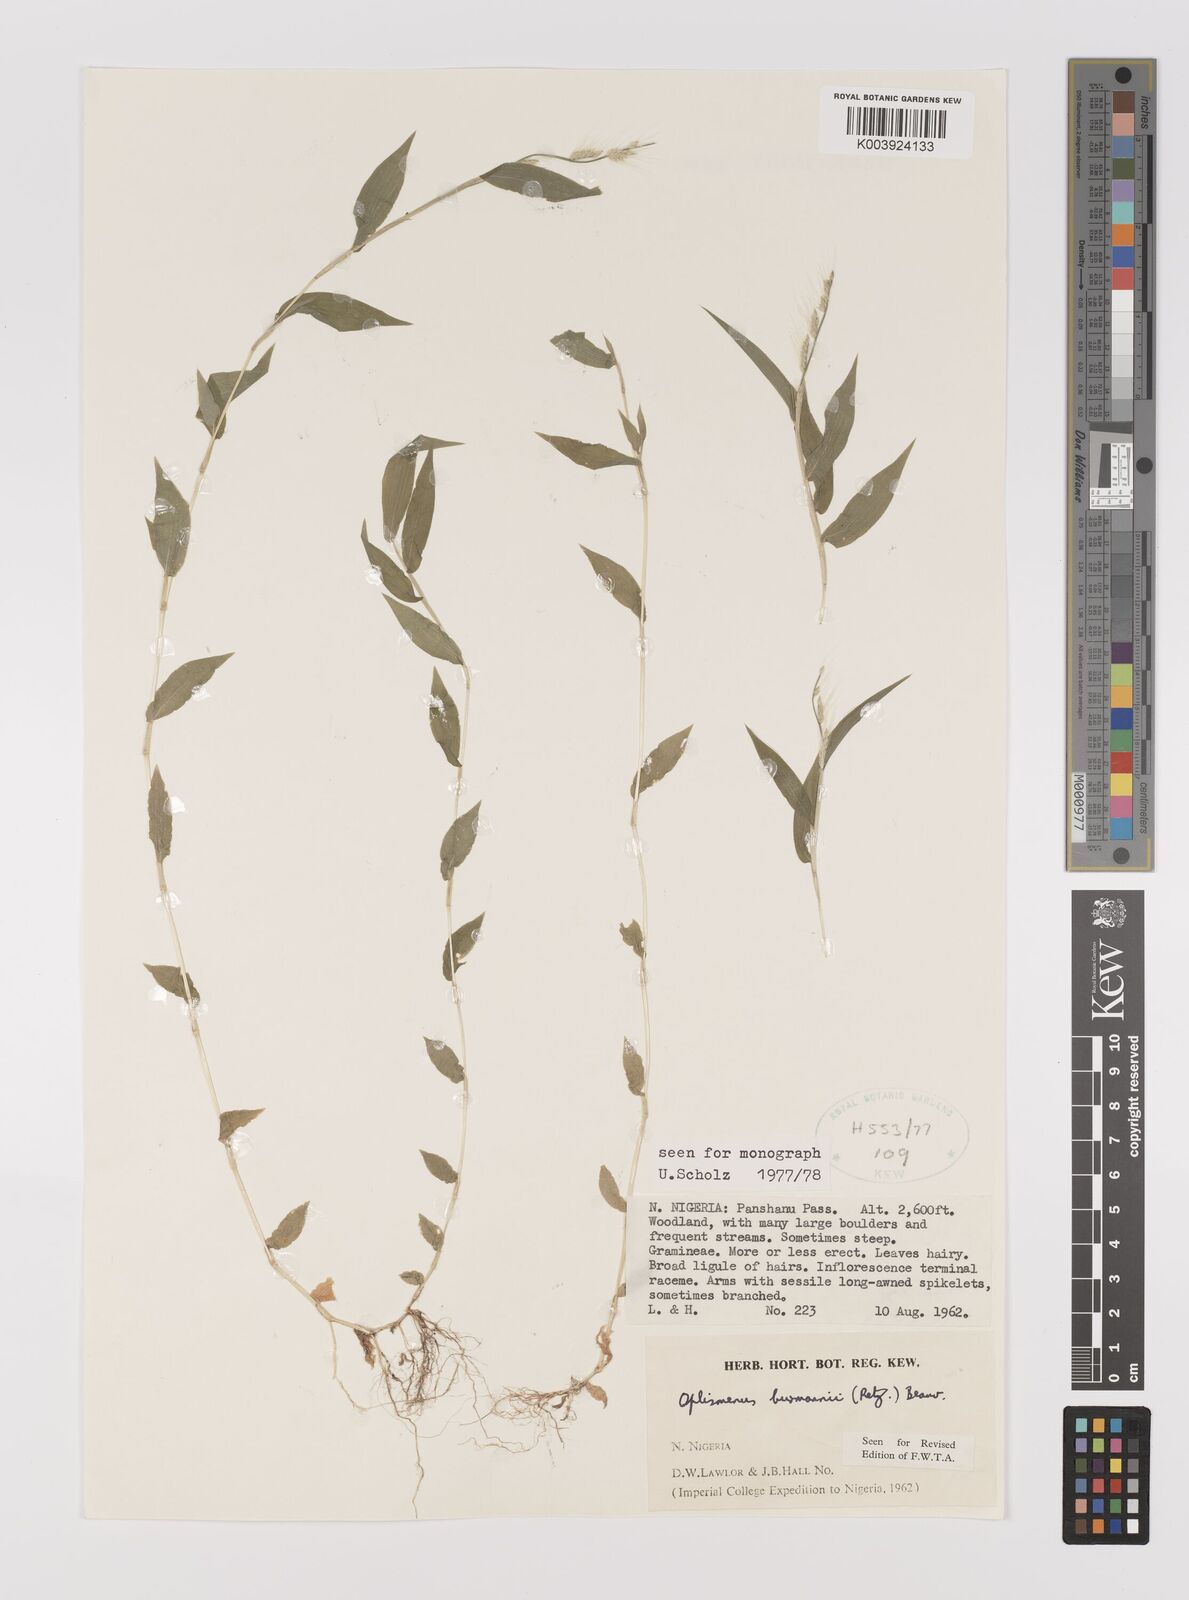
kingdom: Plantae
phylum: Tracheophyta
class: Liliopsida
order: Poales
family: Poaceae
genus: Oplismenus
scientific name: Oplismenus burmanni
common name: Burmann's basketgrass
